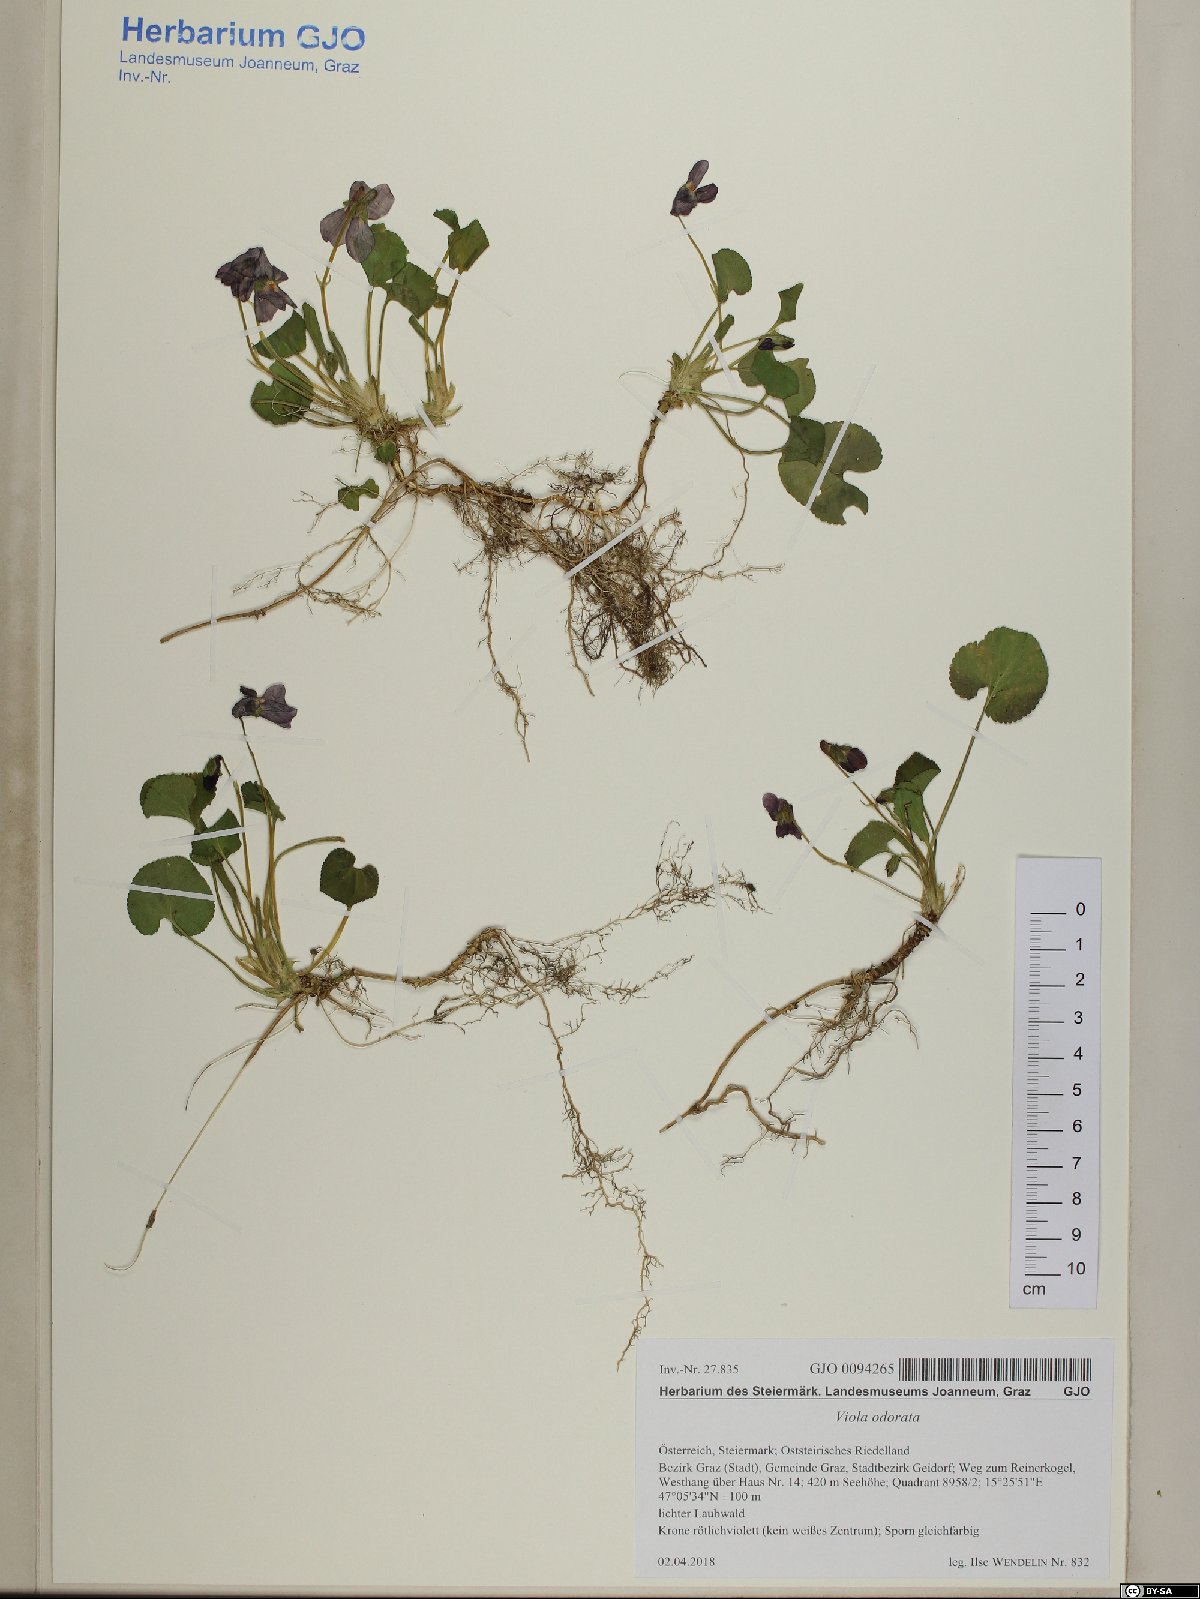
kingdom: Plantae
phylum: Tracheophyta
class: Magnoliopsida
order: Malpighiales
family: Violaceae
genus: Viola
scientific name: Viola odorata
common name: Sweet violet
